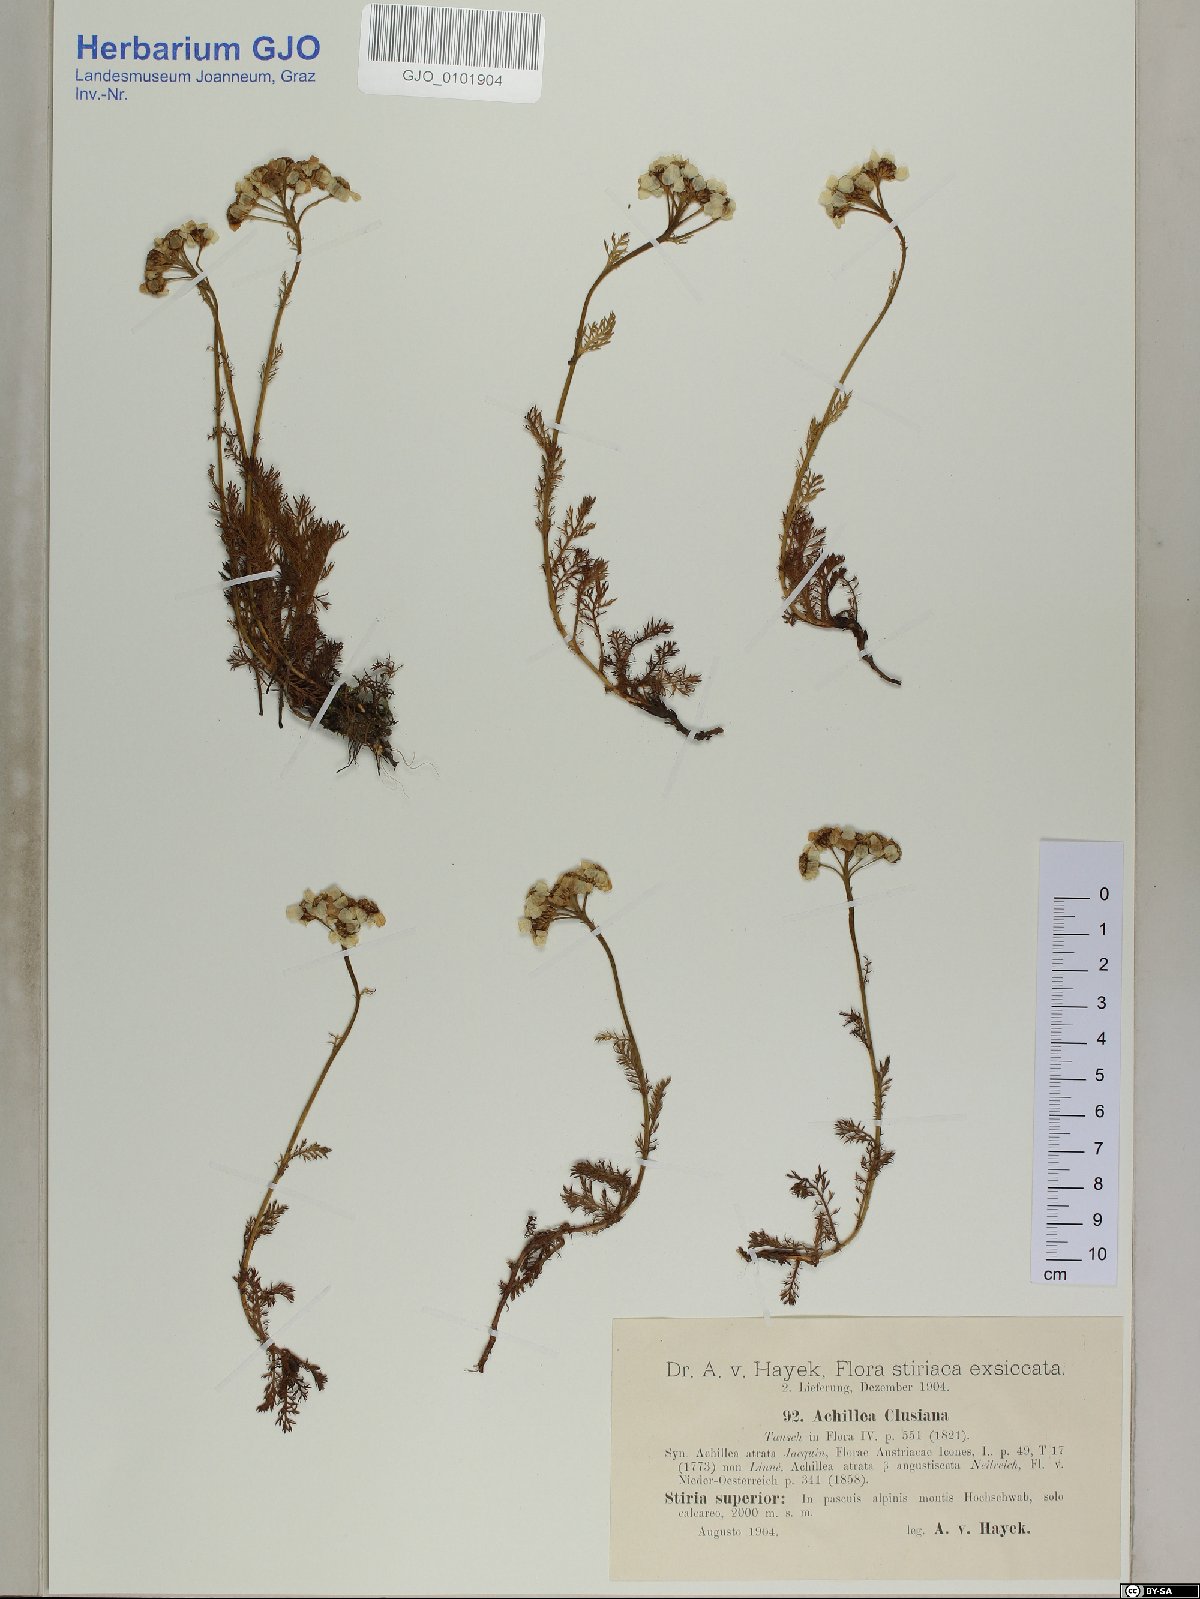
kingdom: Plantae
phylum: Tracheophyta
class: Magnoliopsida
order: Asterales
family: Asteraceae
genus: Achillea
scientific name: Achillea clusiana
